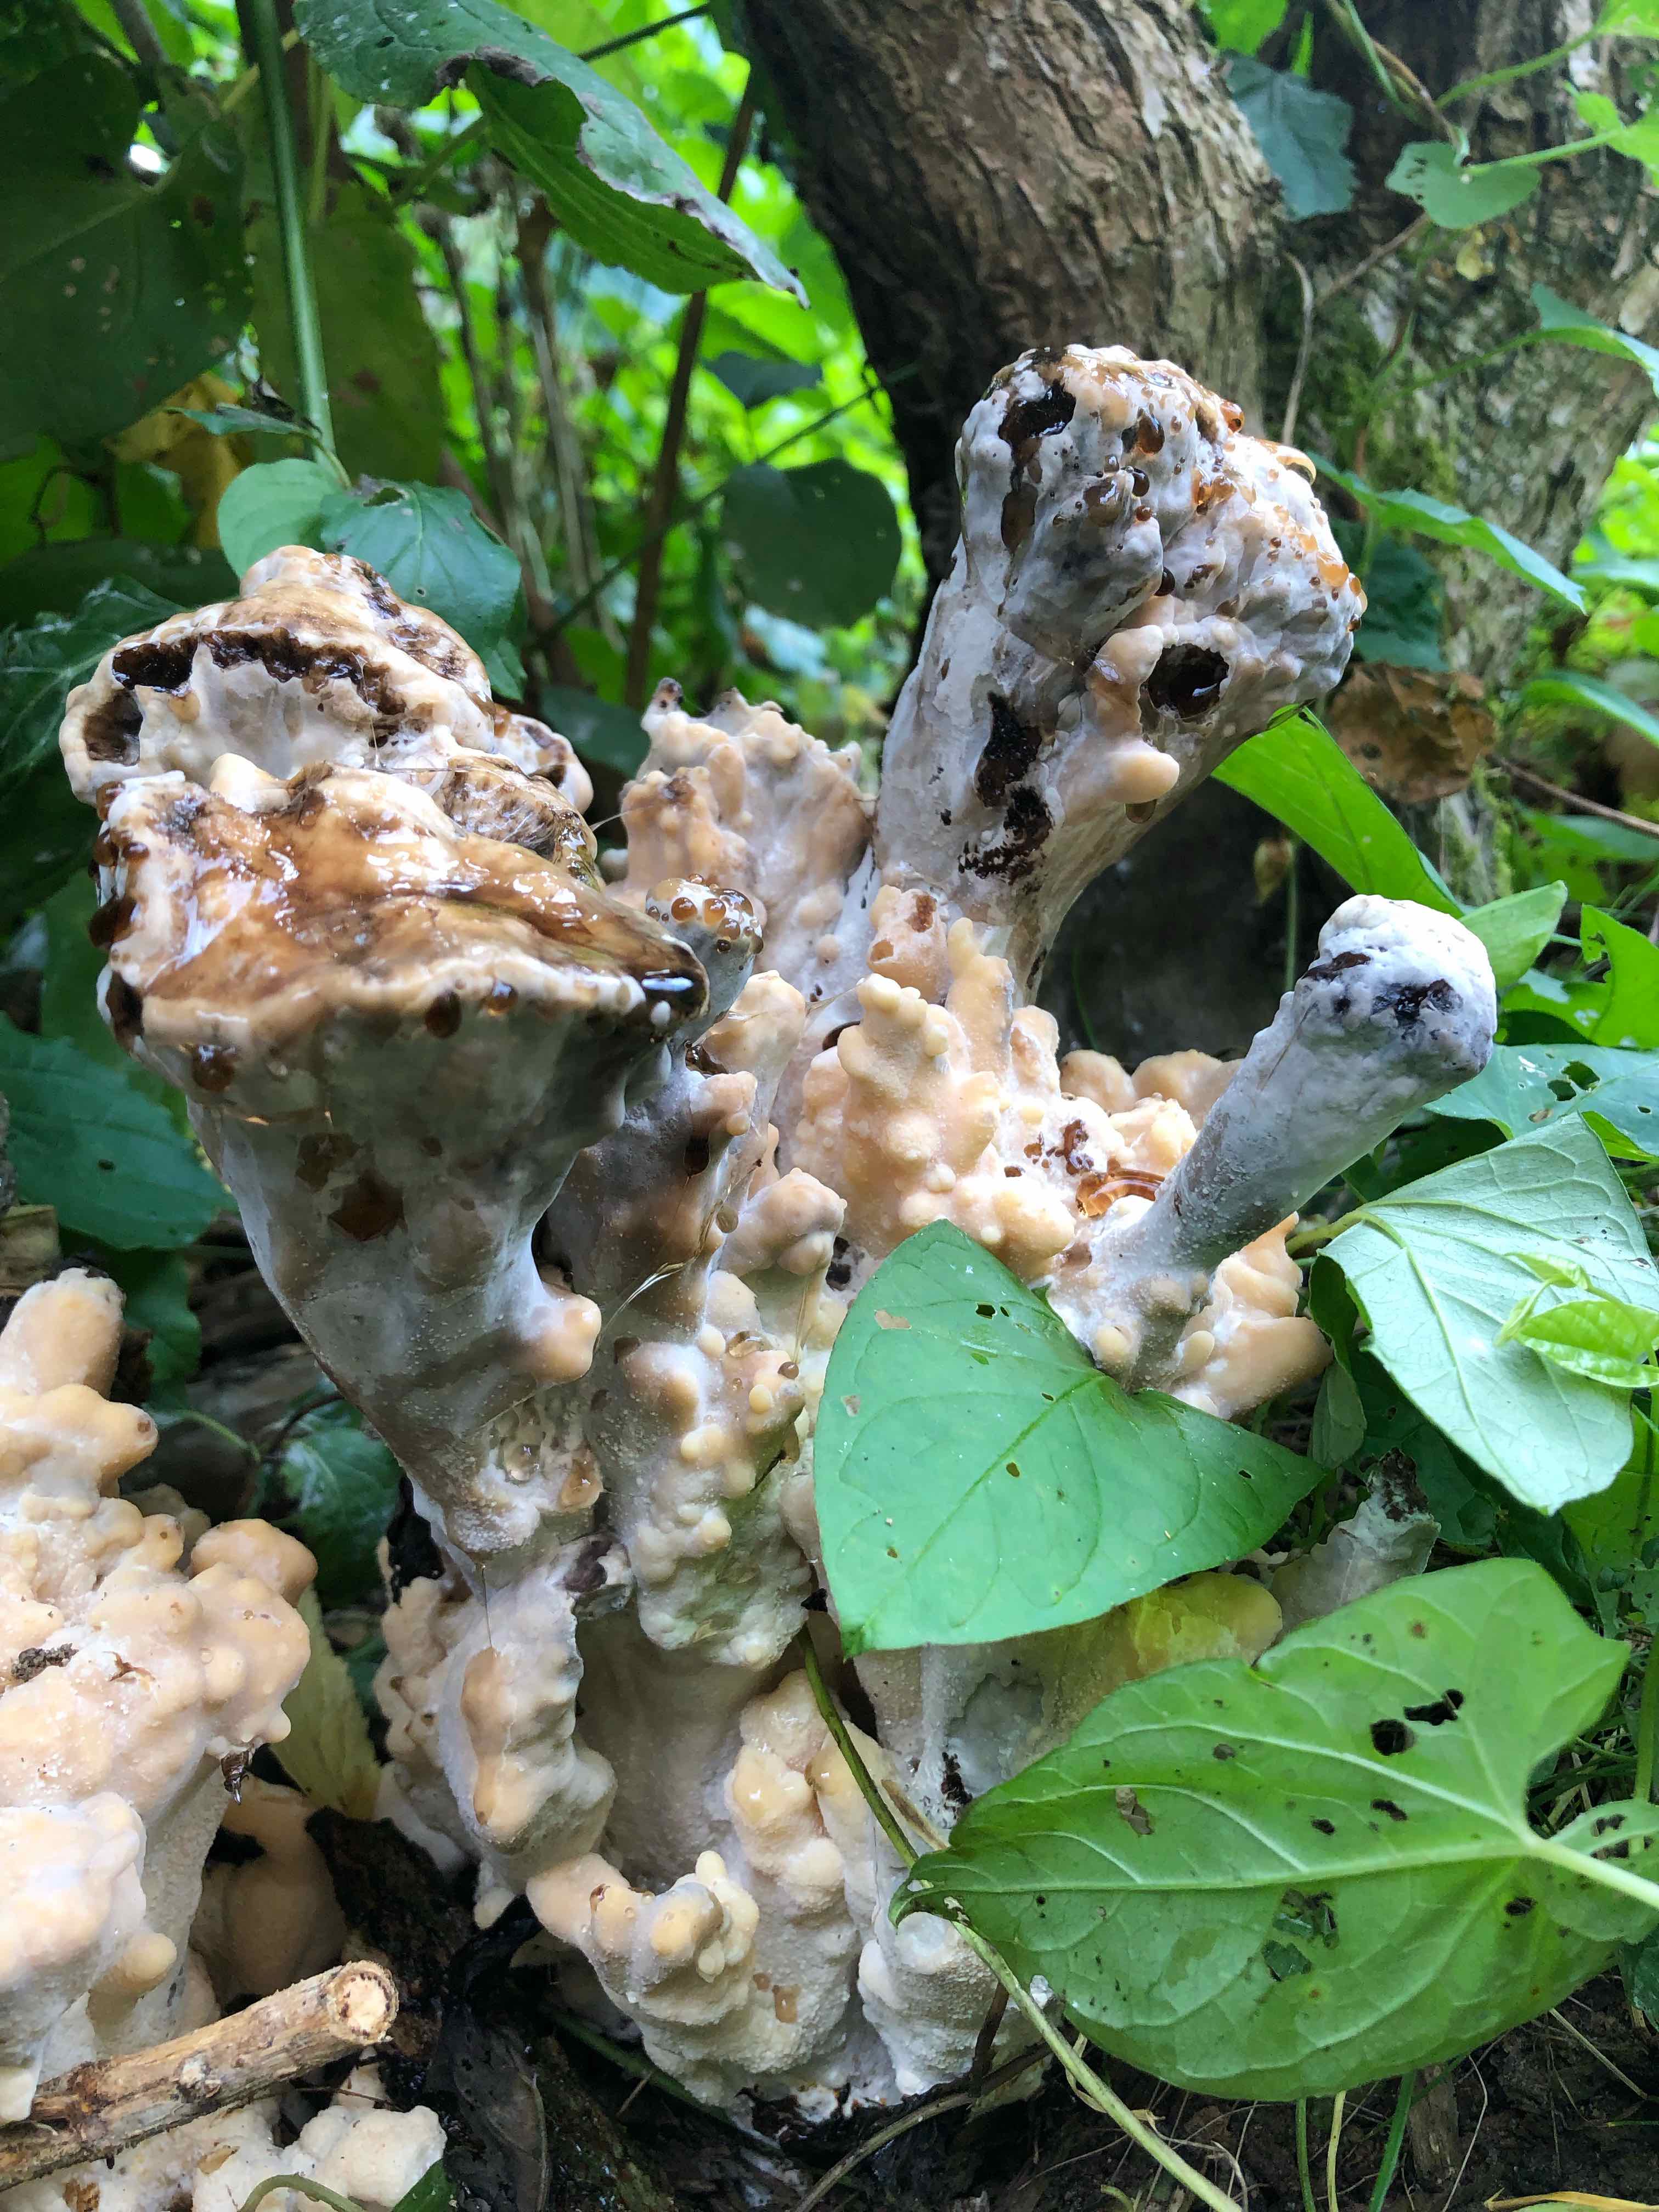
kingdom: Fungi
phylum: Basidiomycota
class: Agaricomycetes
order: Polyporales
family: Meripilaceae
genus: Meripilus
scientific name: Meripilus giganteus
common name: kæmpeporesvamp
